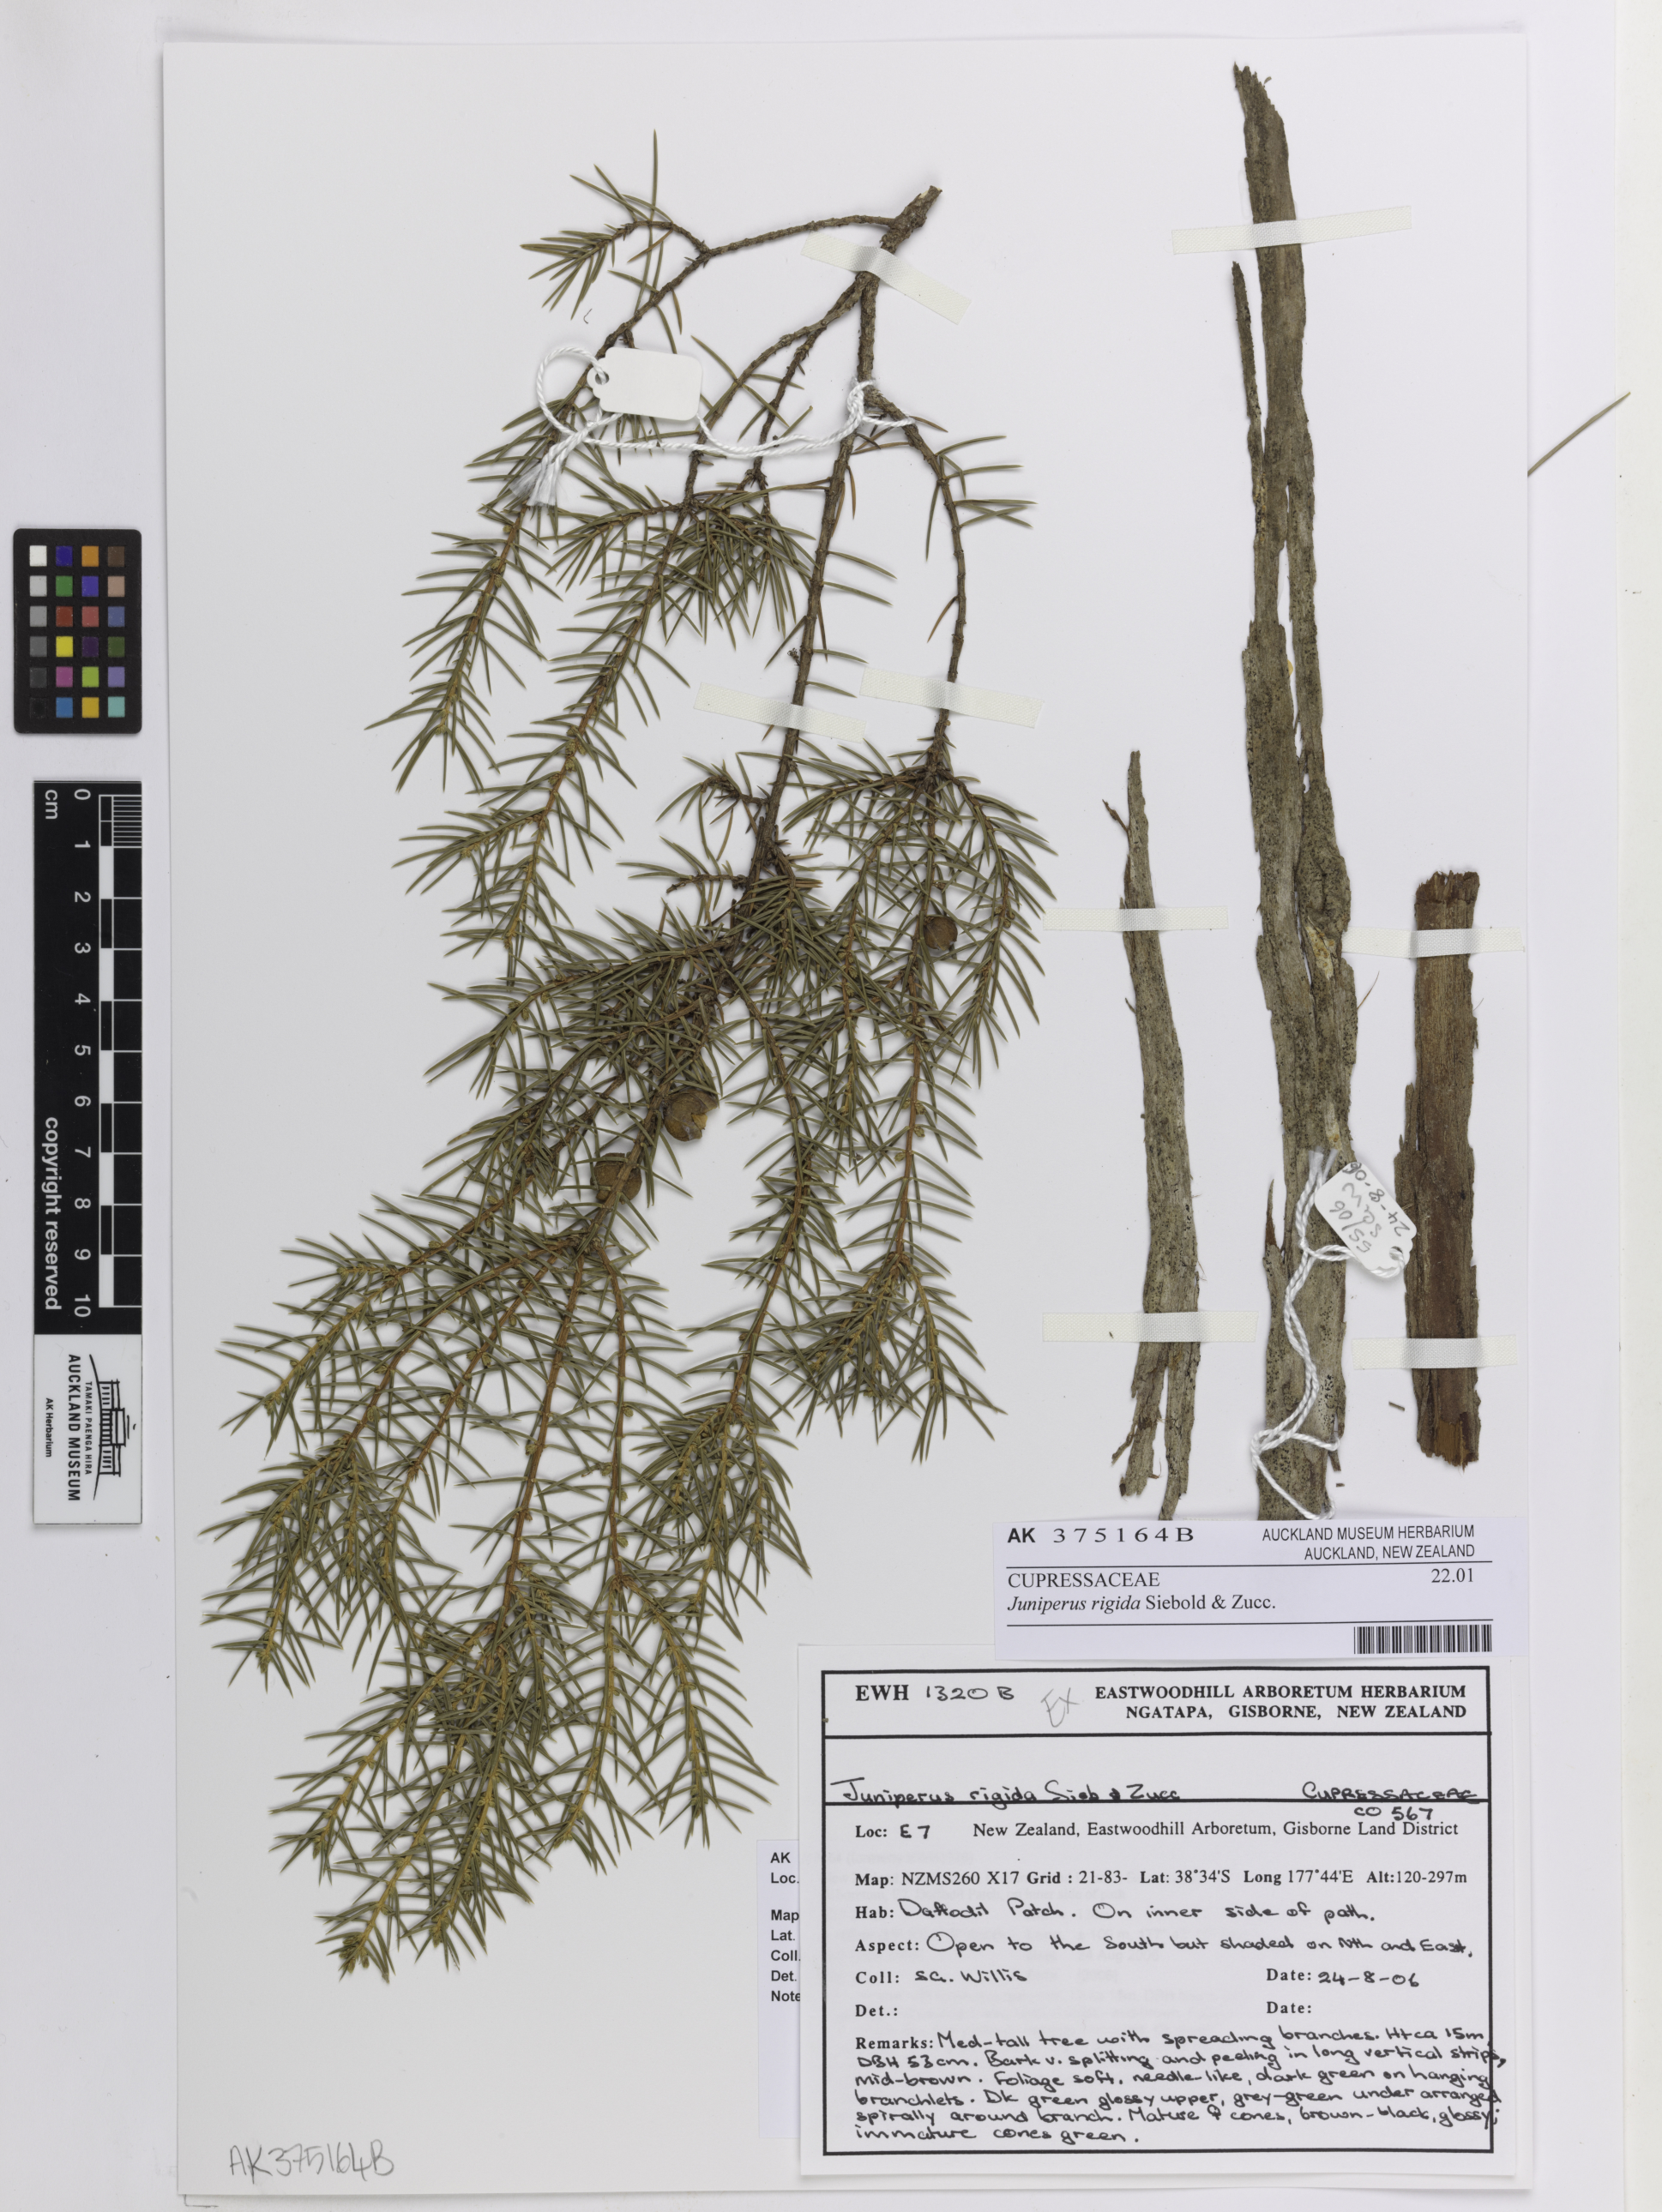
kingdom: Plantae
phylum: Tracheophyta
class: Pinopsida
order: Pinales
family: Cupressaceae
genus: Juniperus
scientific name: Juniperus rigida
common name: Needle juniper
